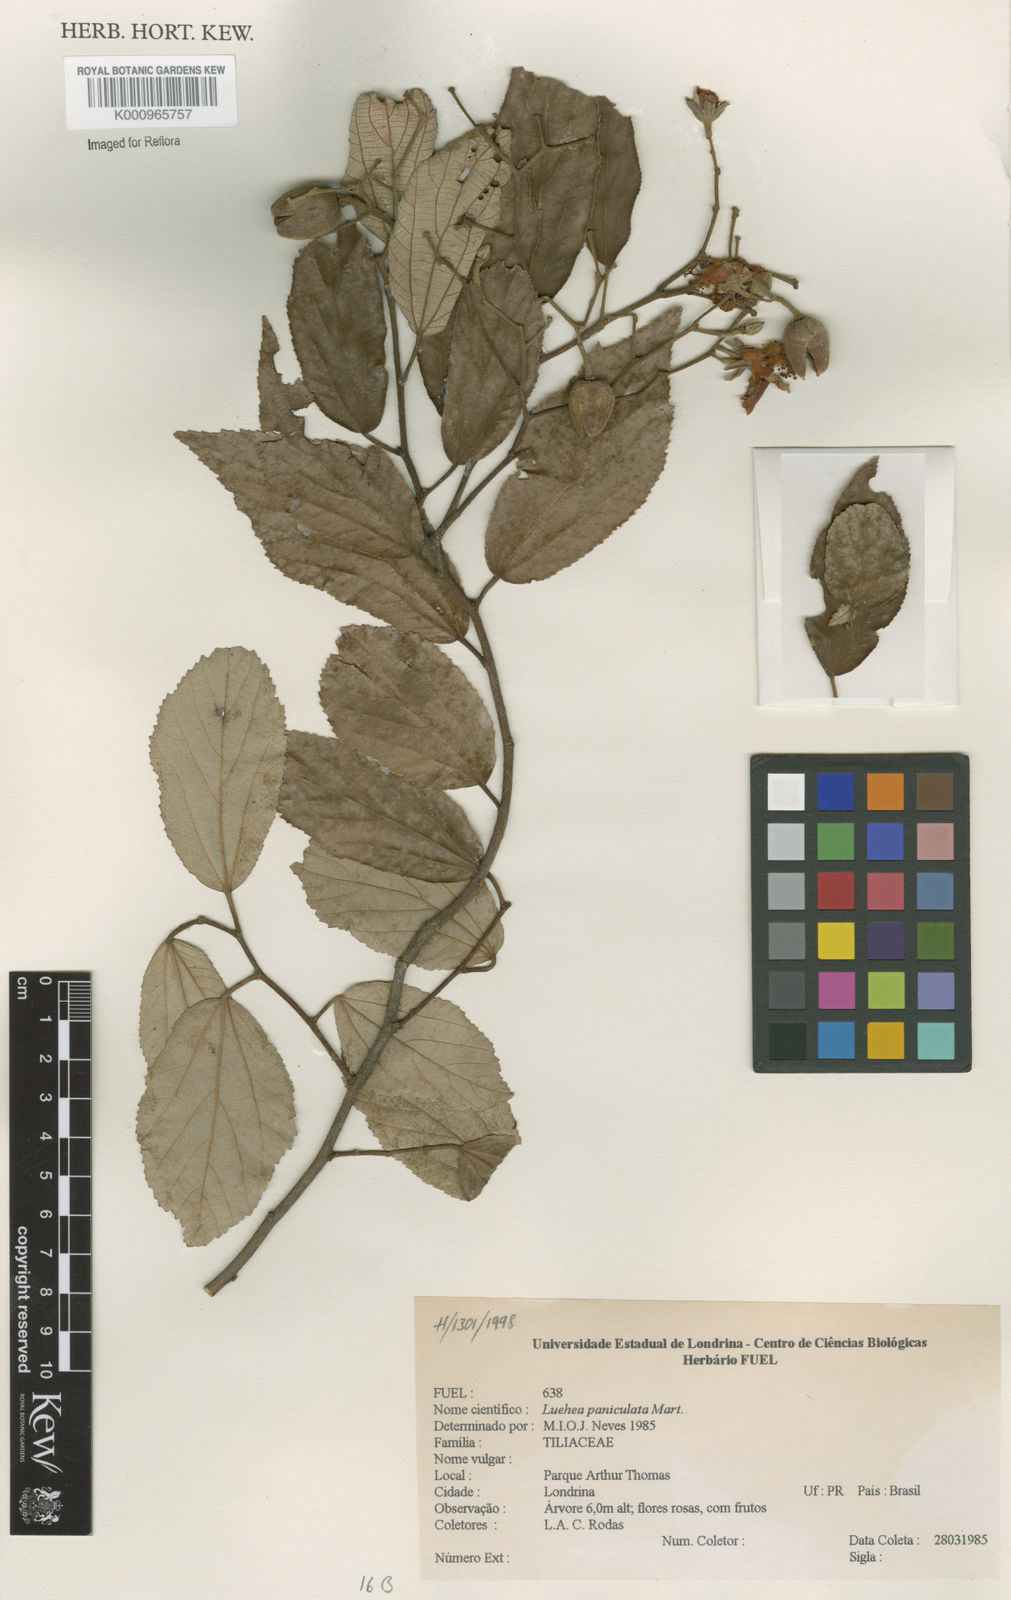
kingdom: Plantae
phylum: Tracheophyta
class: Magnoliopsida
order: Malvales
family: Malvaceae
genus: Luehea
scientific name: Luehea paniculata
